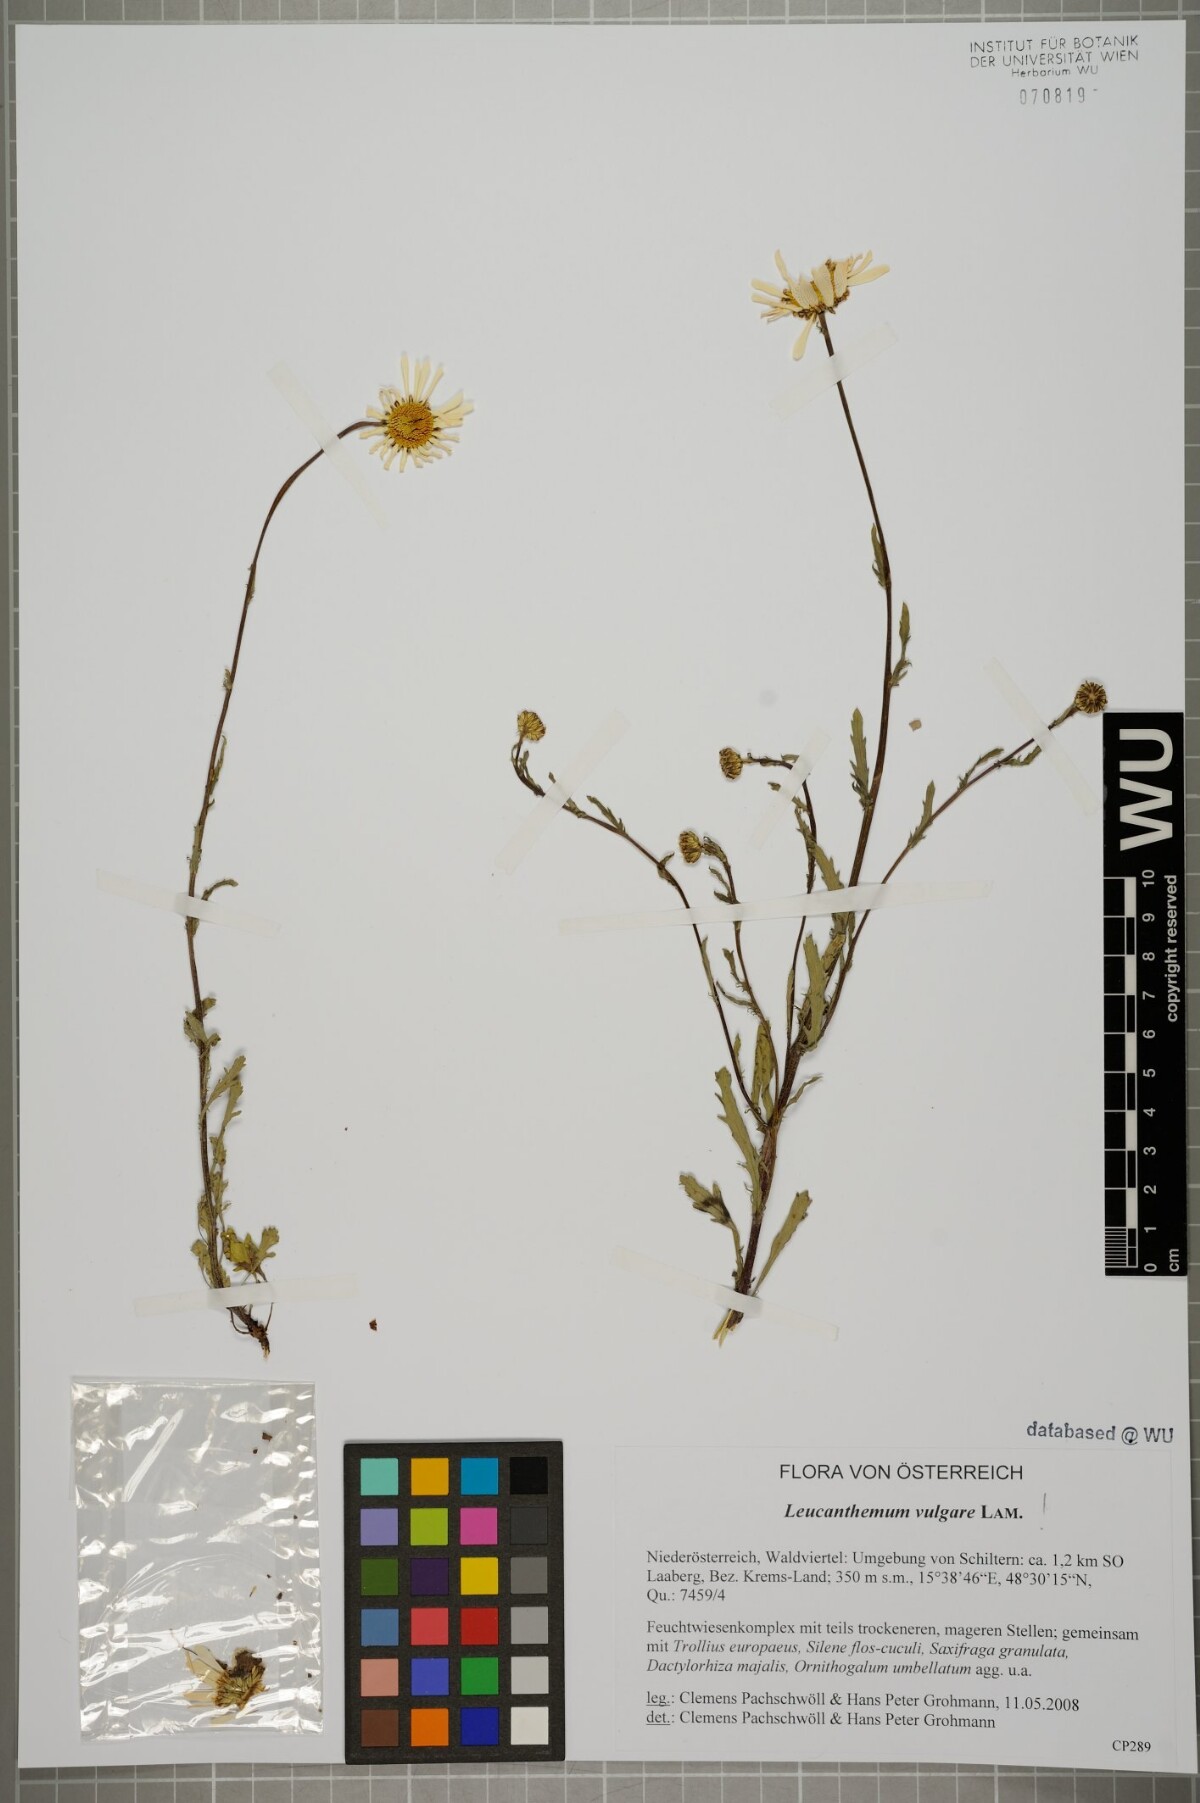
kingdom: Plantae
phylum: Tracheophyta
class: Magnoliopsida
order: Asterales
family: Asteraceae
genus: Leucanthemum
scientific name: Leucanthemum vulgare
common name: Oxeye daisy
